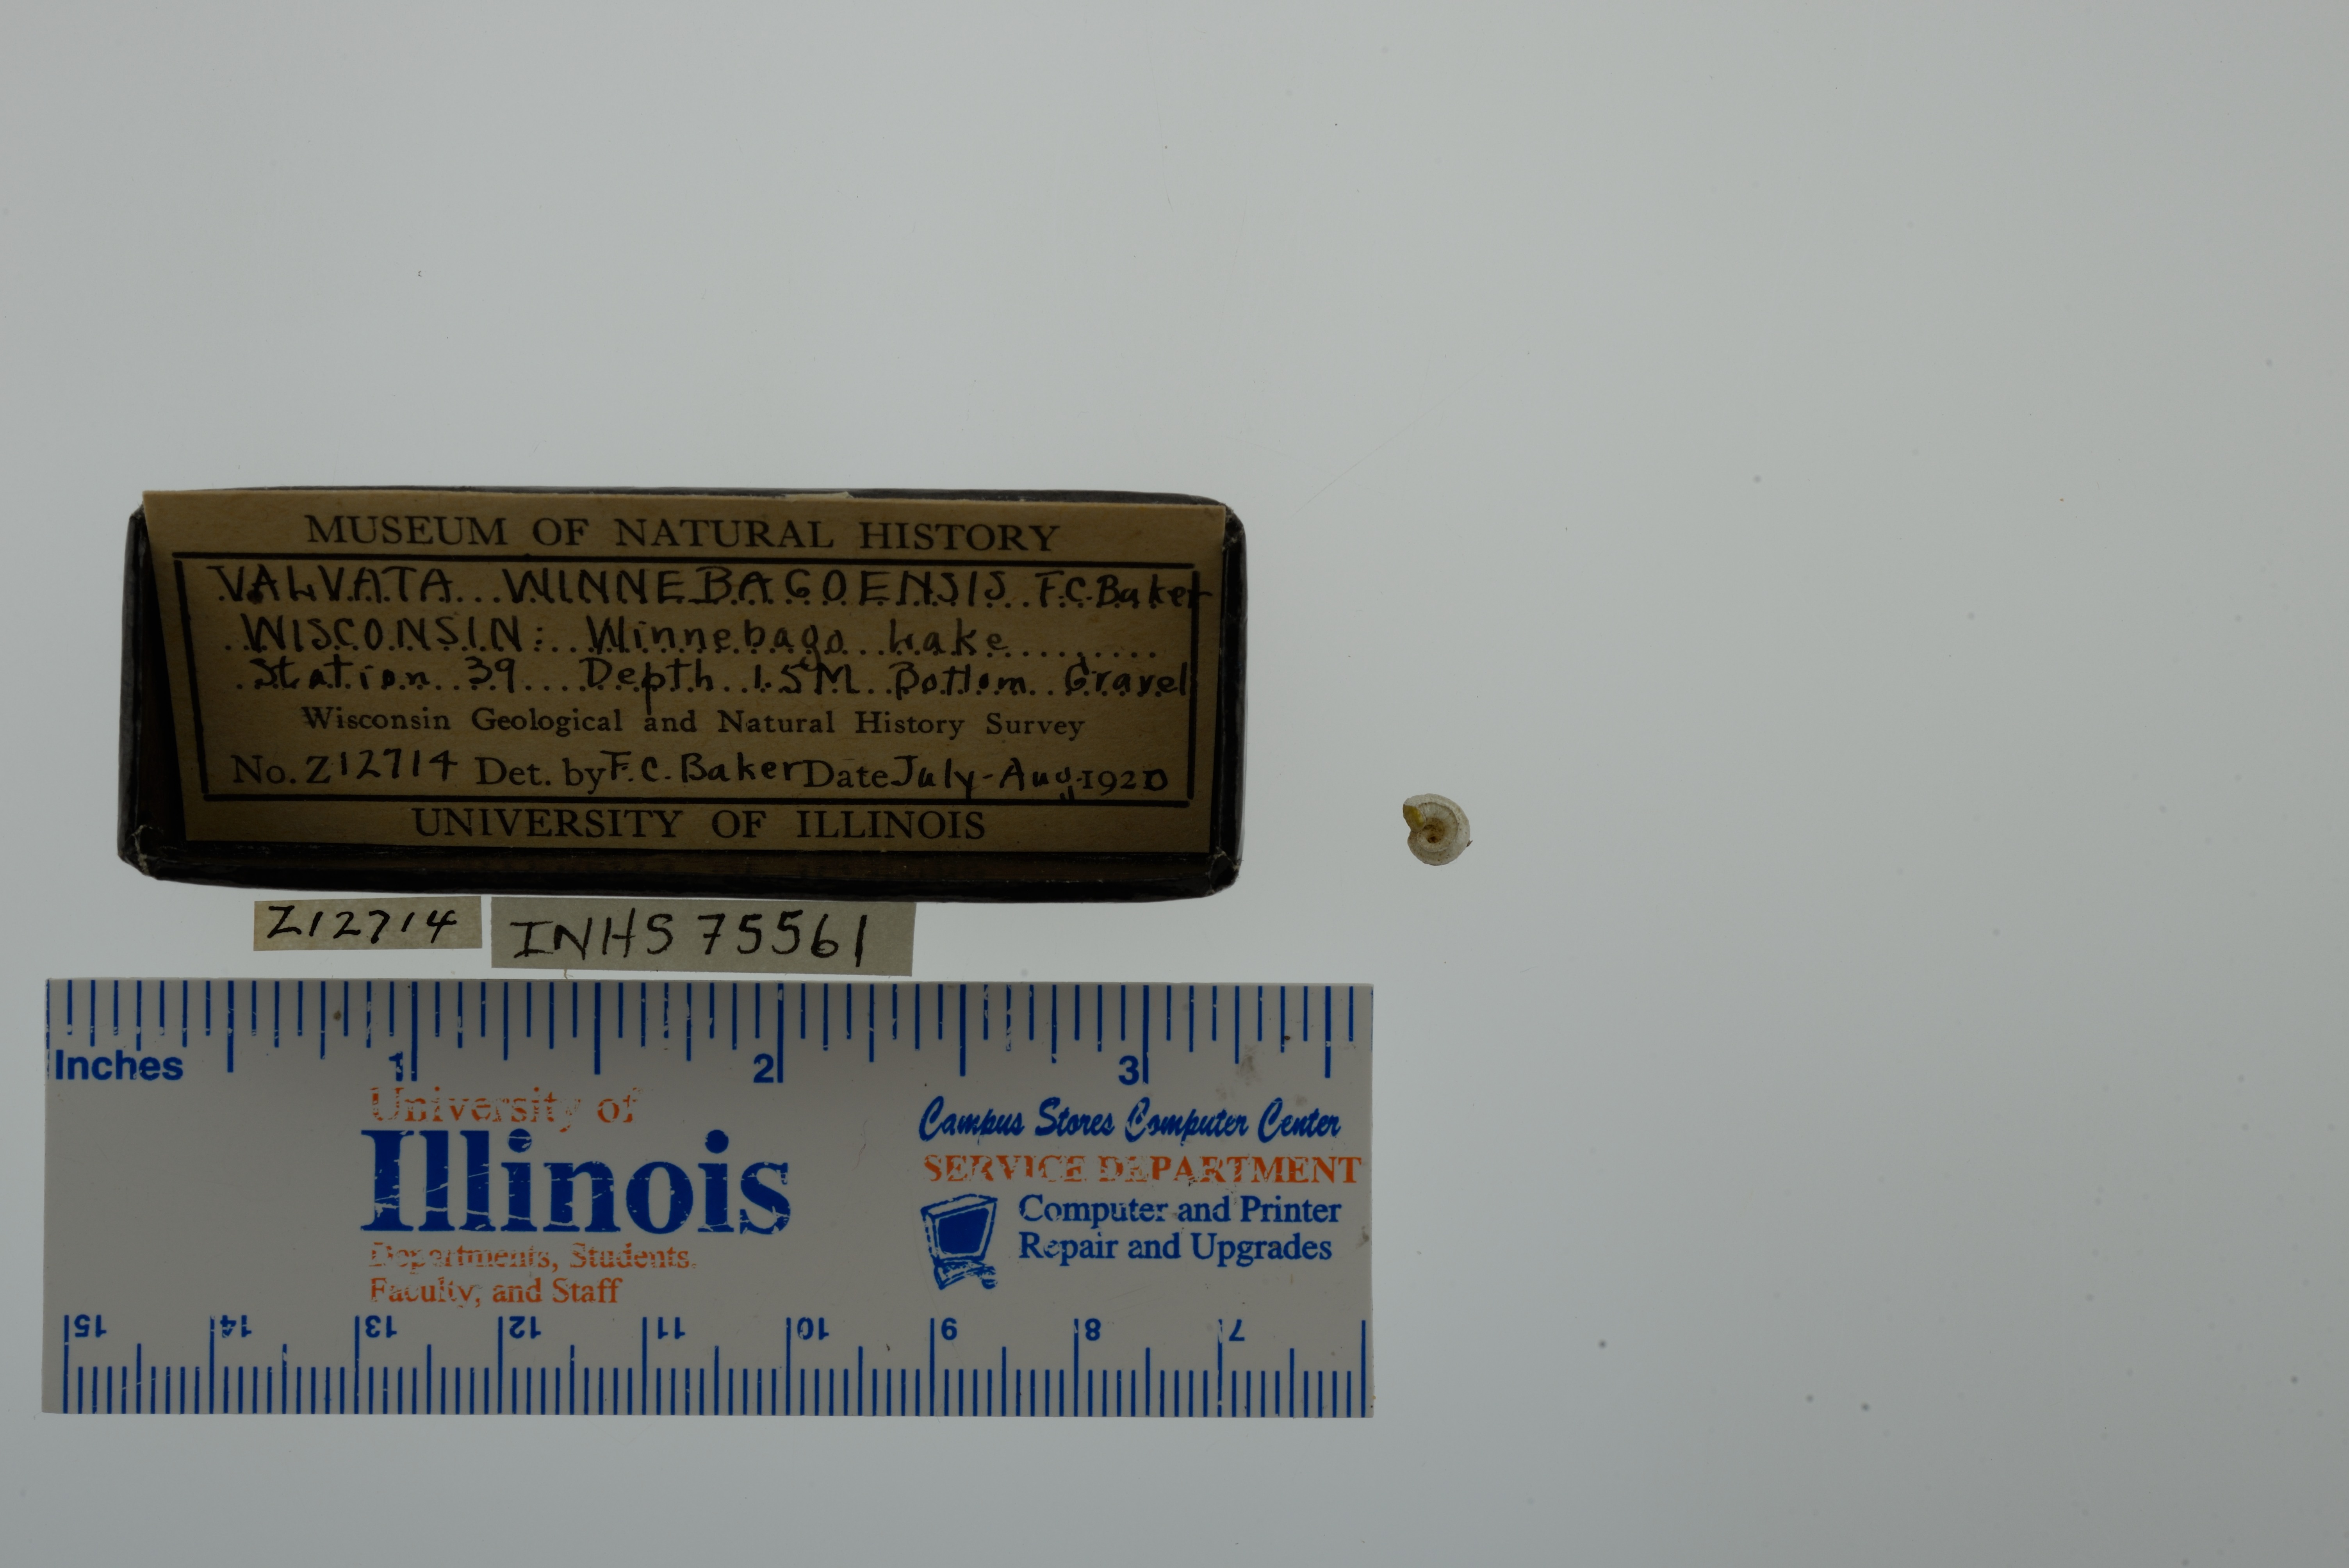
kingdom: Animalia
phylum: Mollusca
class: Gastropoda
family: Valvatidae
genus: Valvata
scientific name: Valvata winnebagoensis
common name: Flanged valvata
